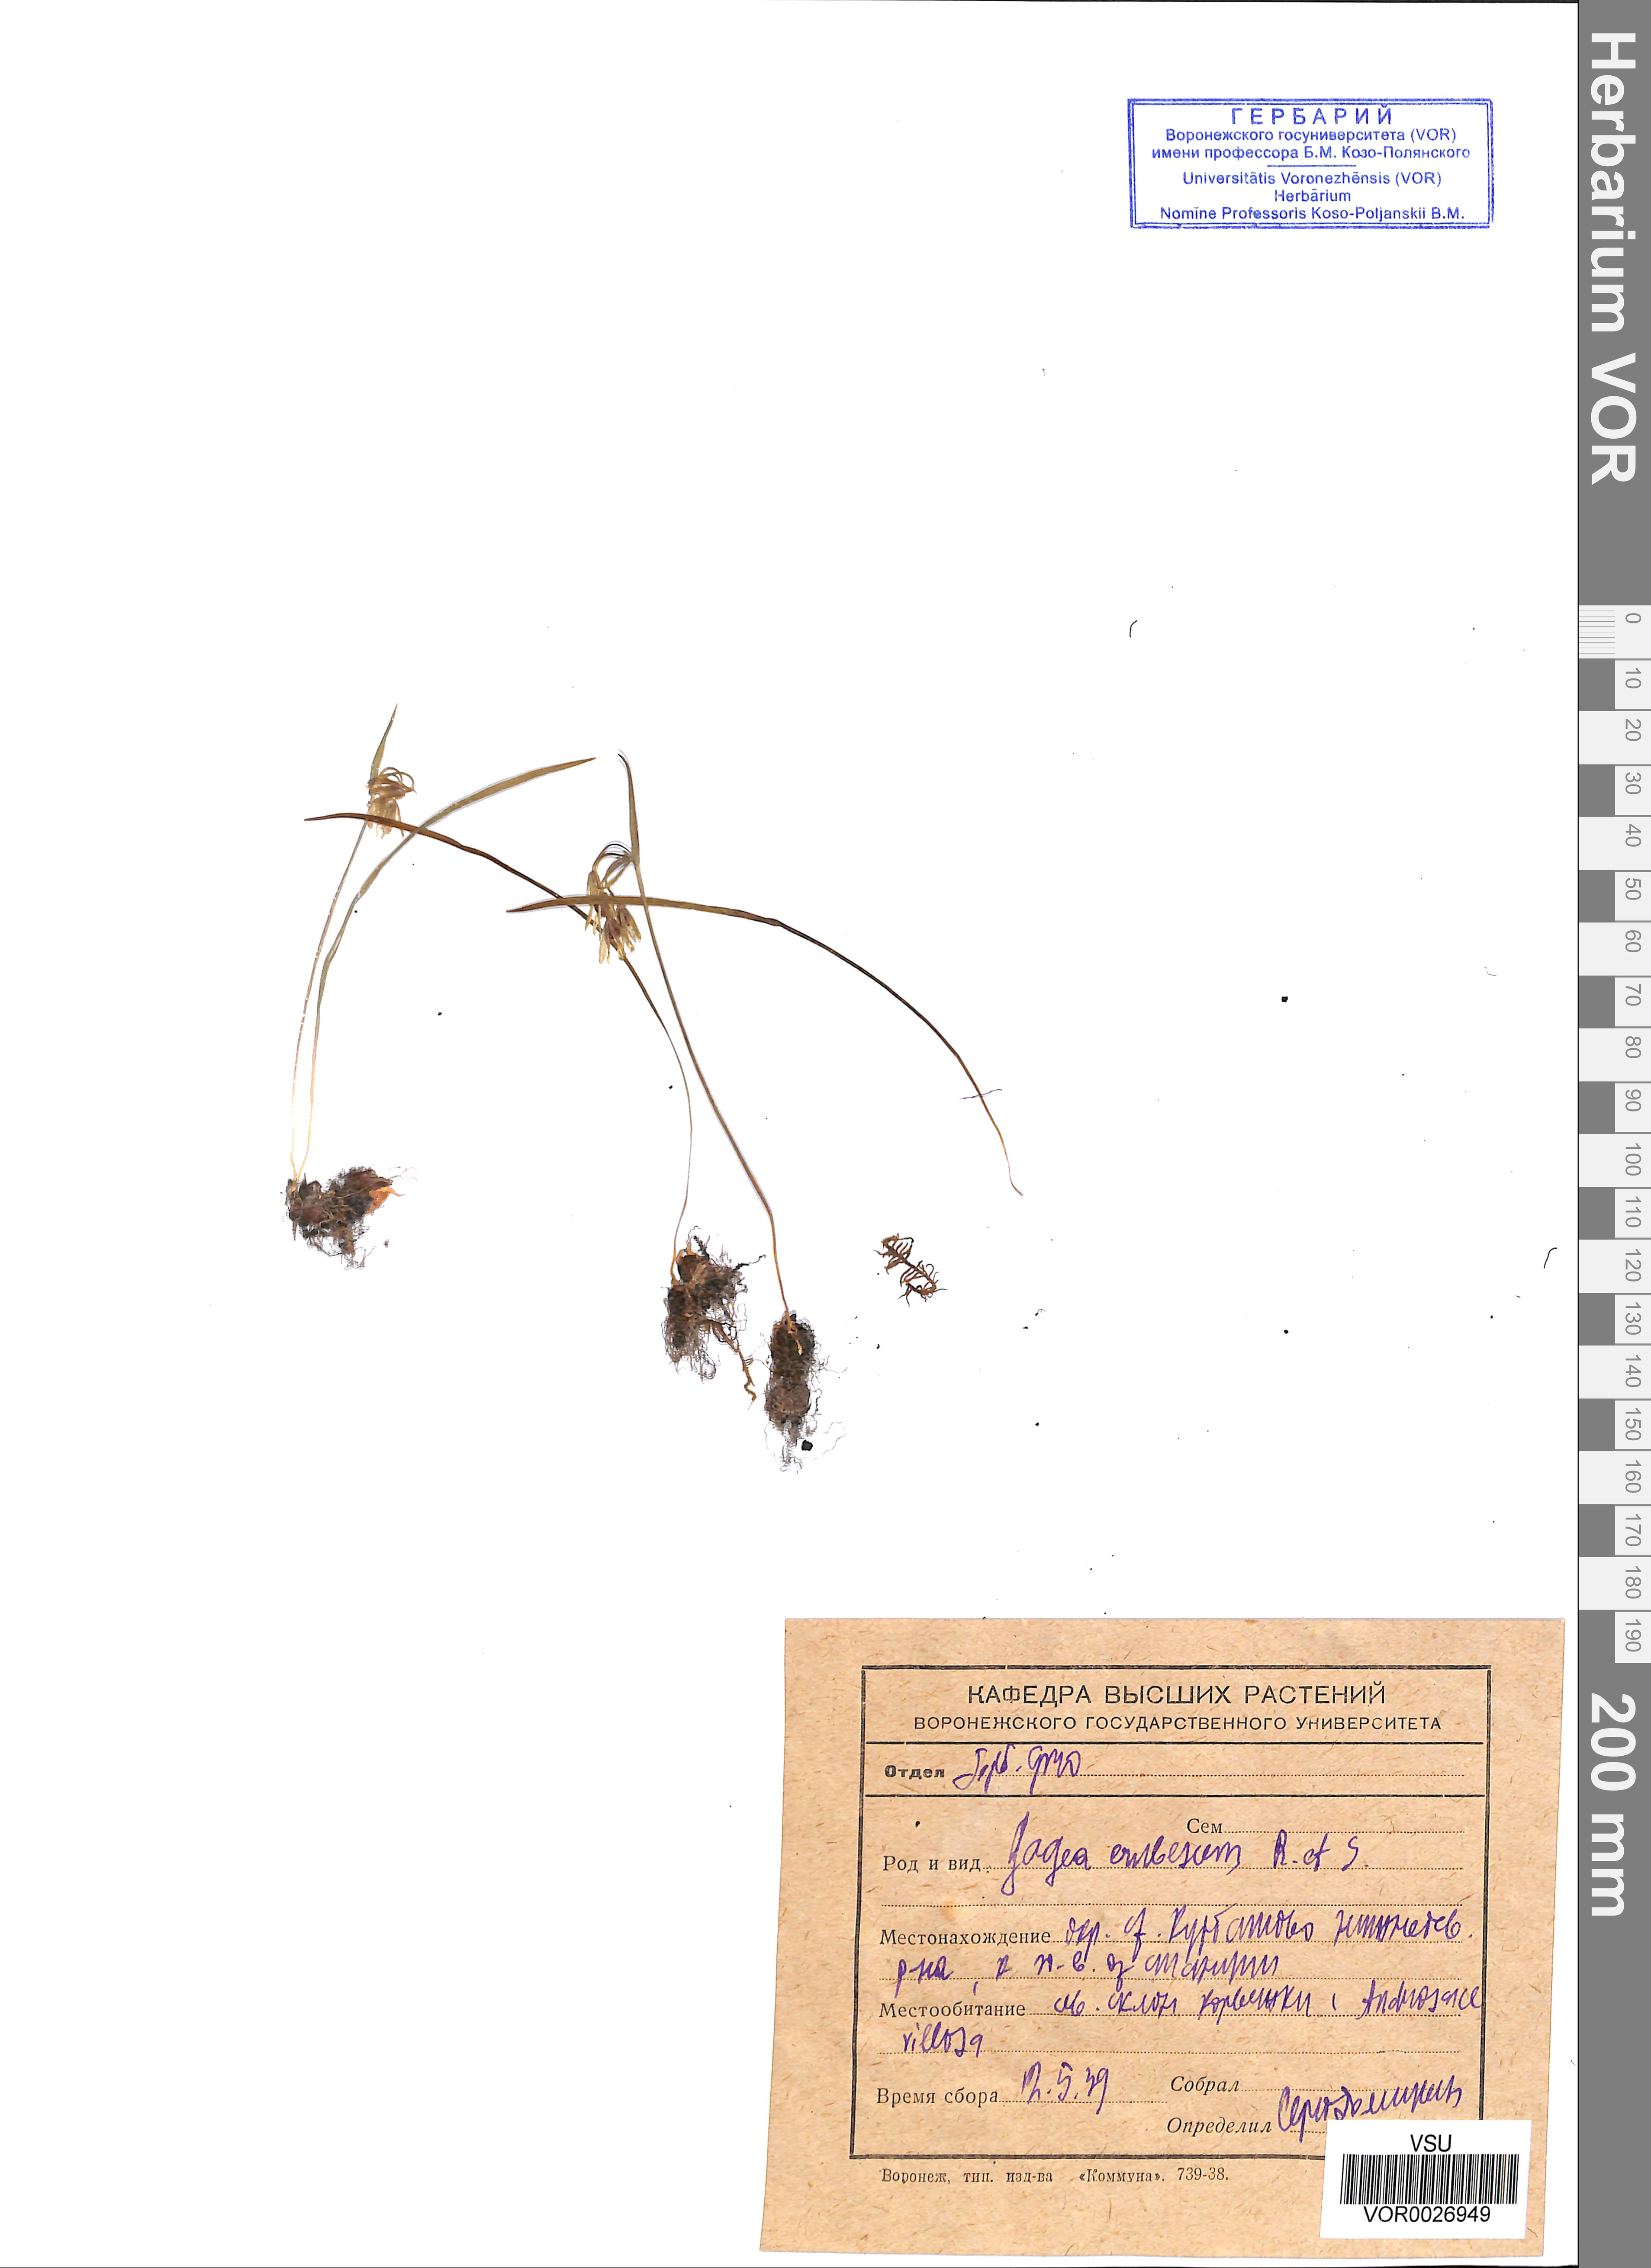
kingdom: Plantae
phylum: Tracheophyta
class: Liliopsida
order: Liliales
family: Liliaceae
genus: Gagea
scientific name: Gagea fragifera
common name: Lily
